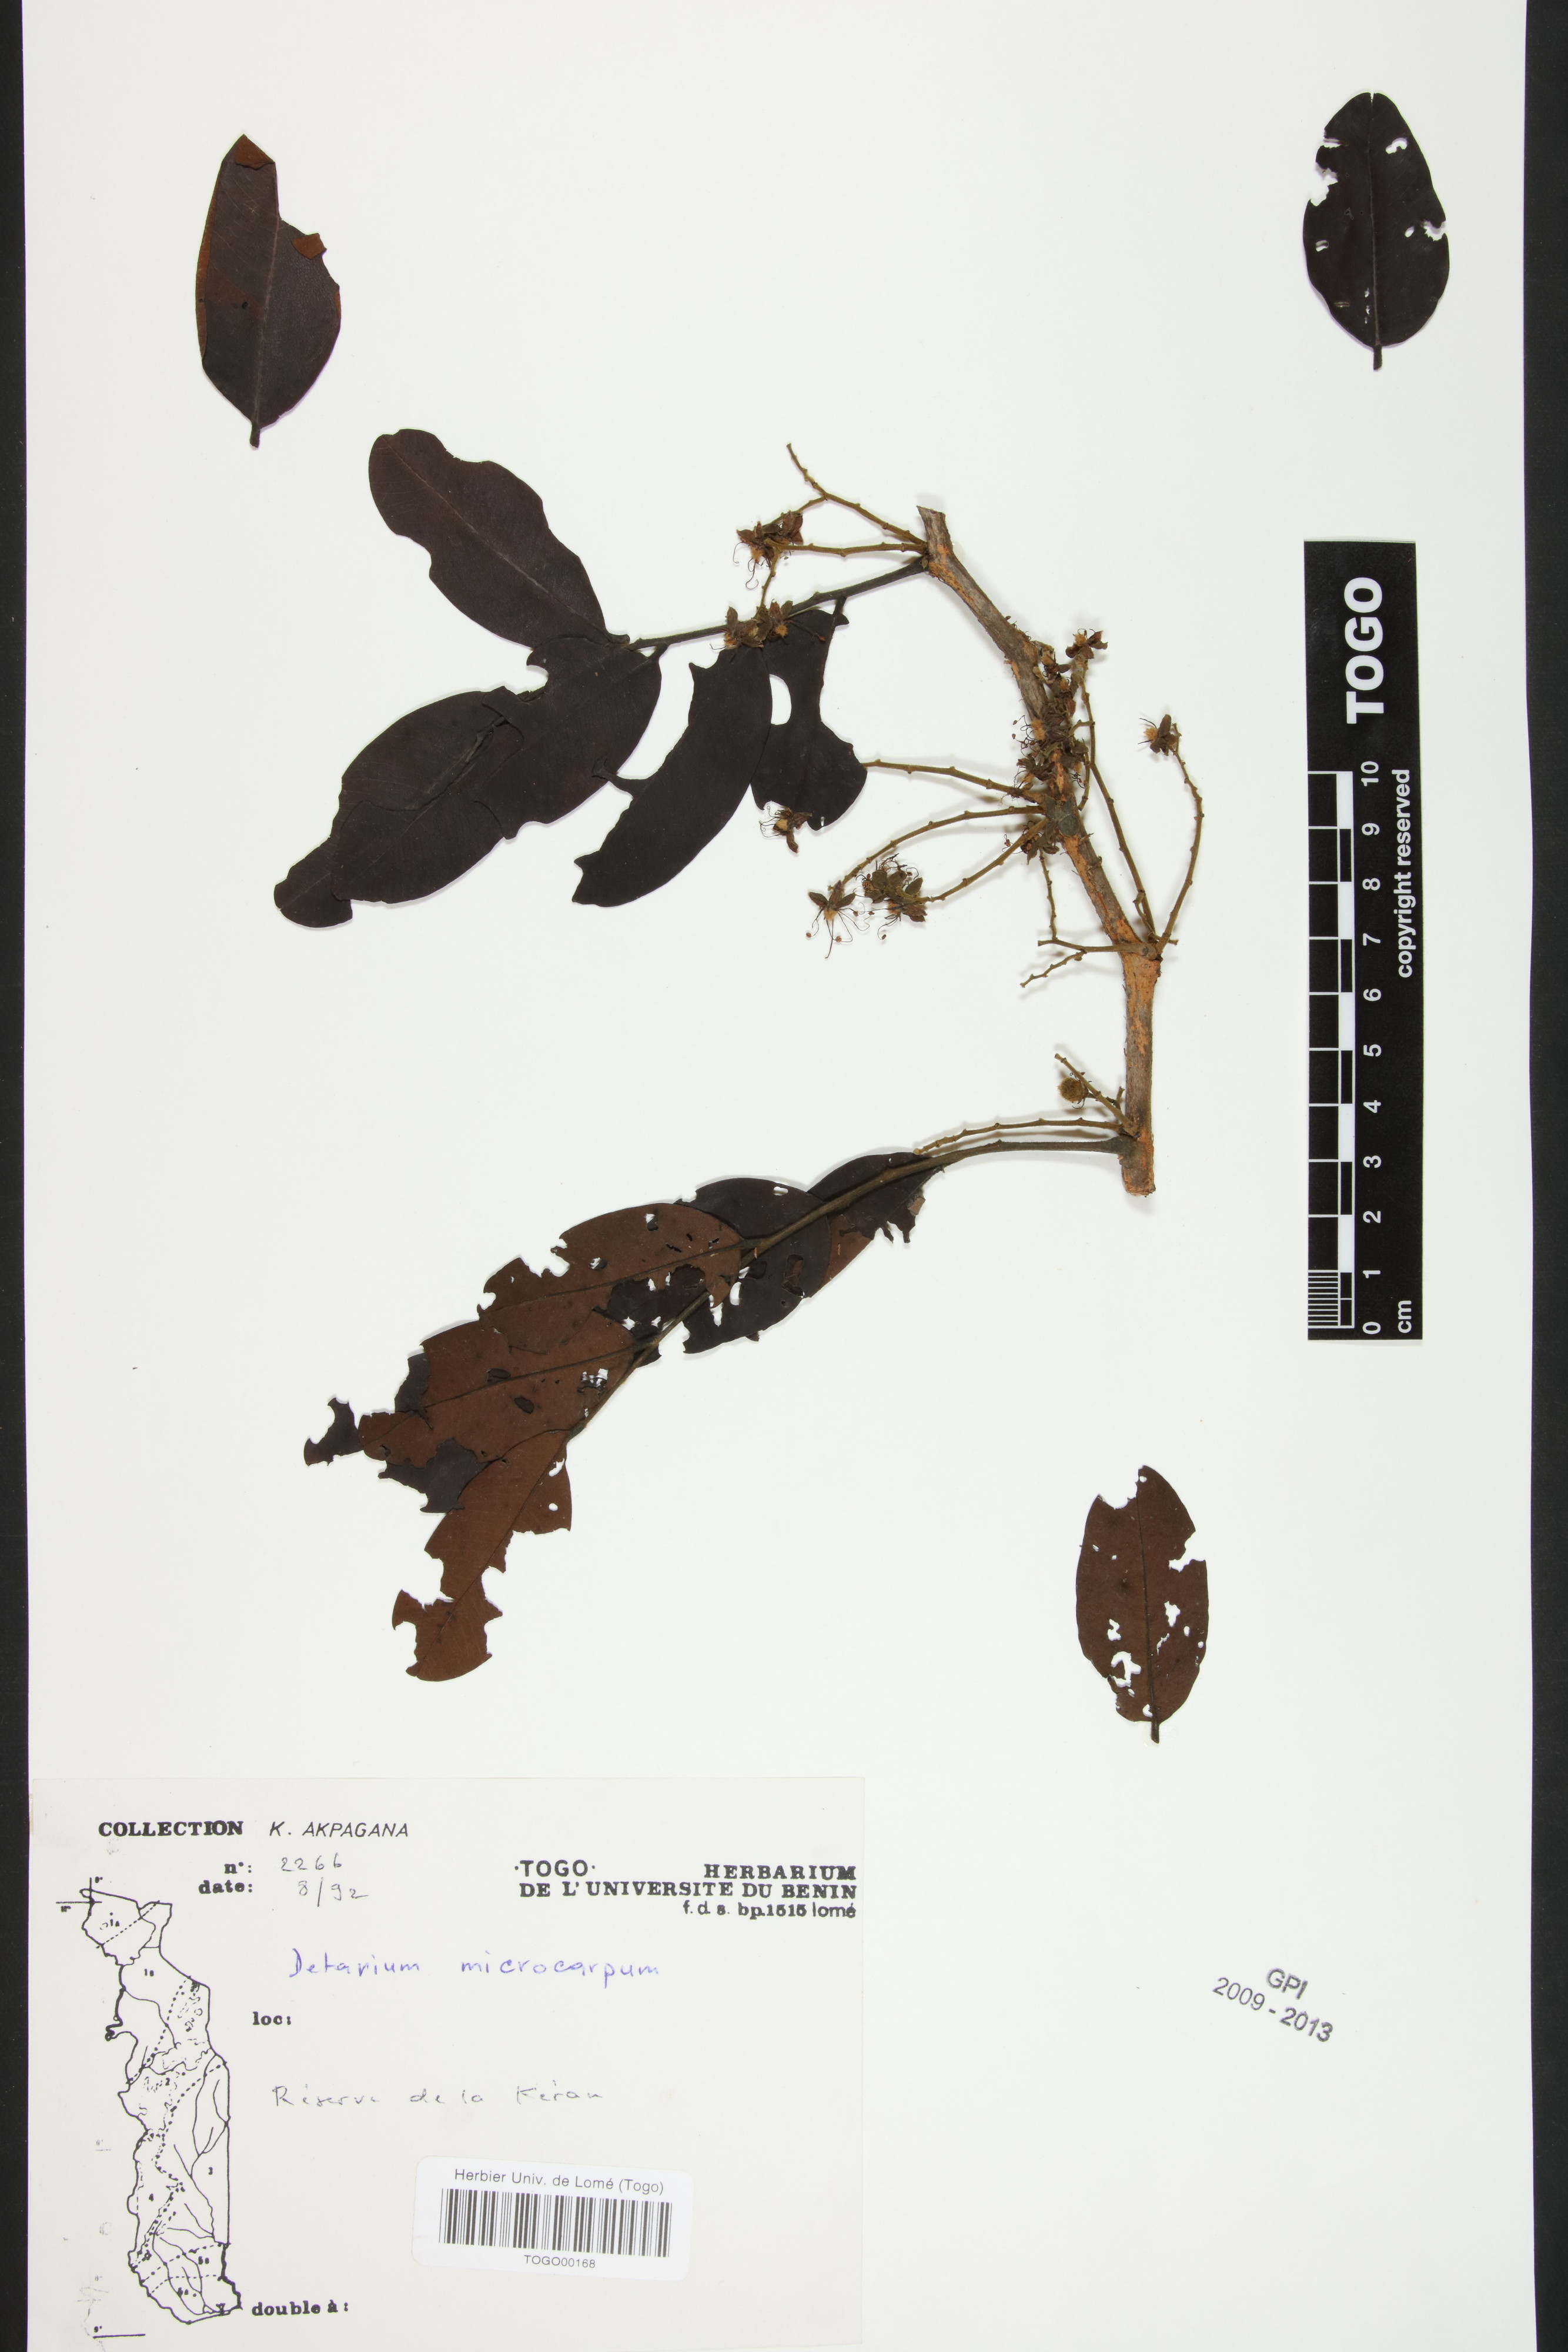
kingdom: Plantae
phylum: Tracheophyta
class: Magnoliopsida
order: Fabales
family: Fabaceae
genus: Detarium
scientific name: Detarium microcarpum
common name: Sweet dattock
